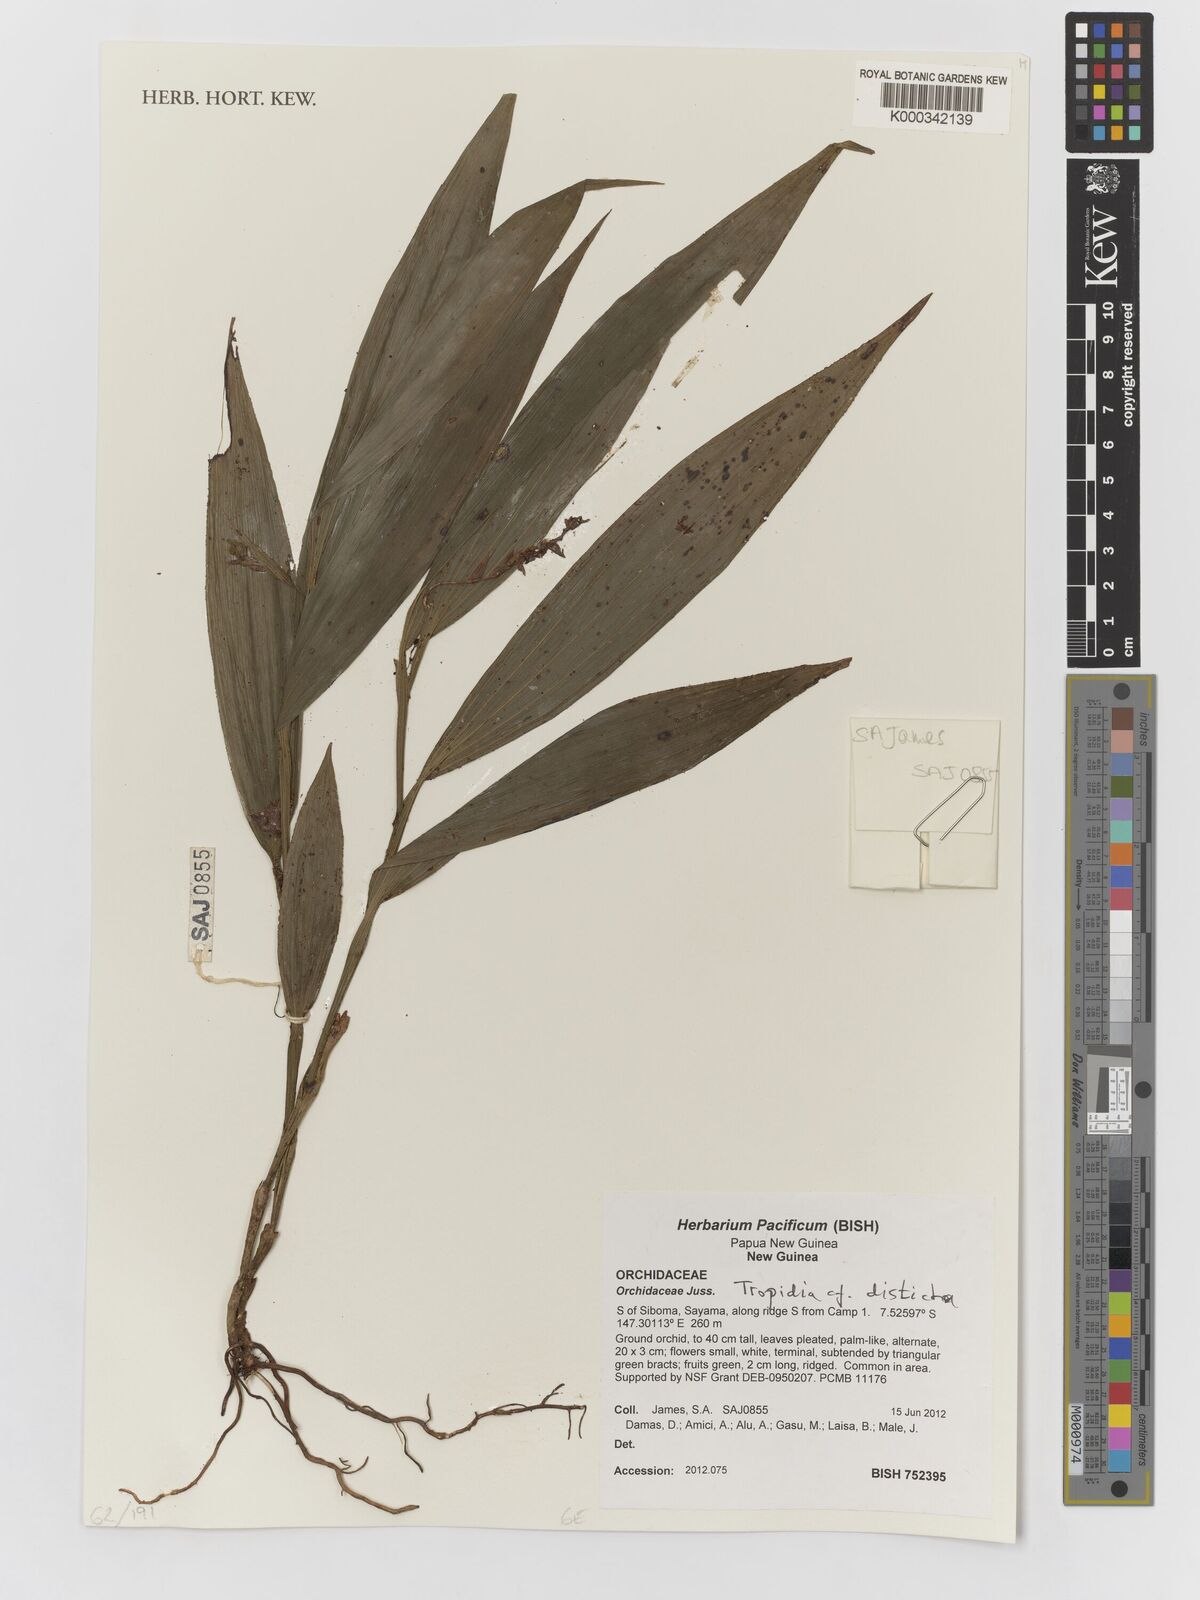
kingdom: Plantae
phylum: Tracheophyta
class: Liliopsida
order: Asparagales
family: Orchidaceae
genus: Tropidia
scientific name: Tropidia disticha
